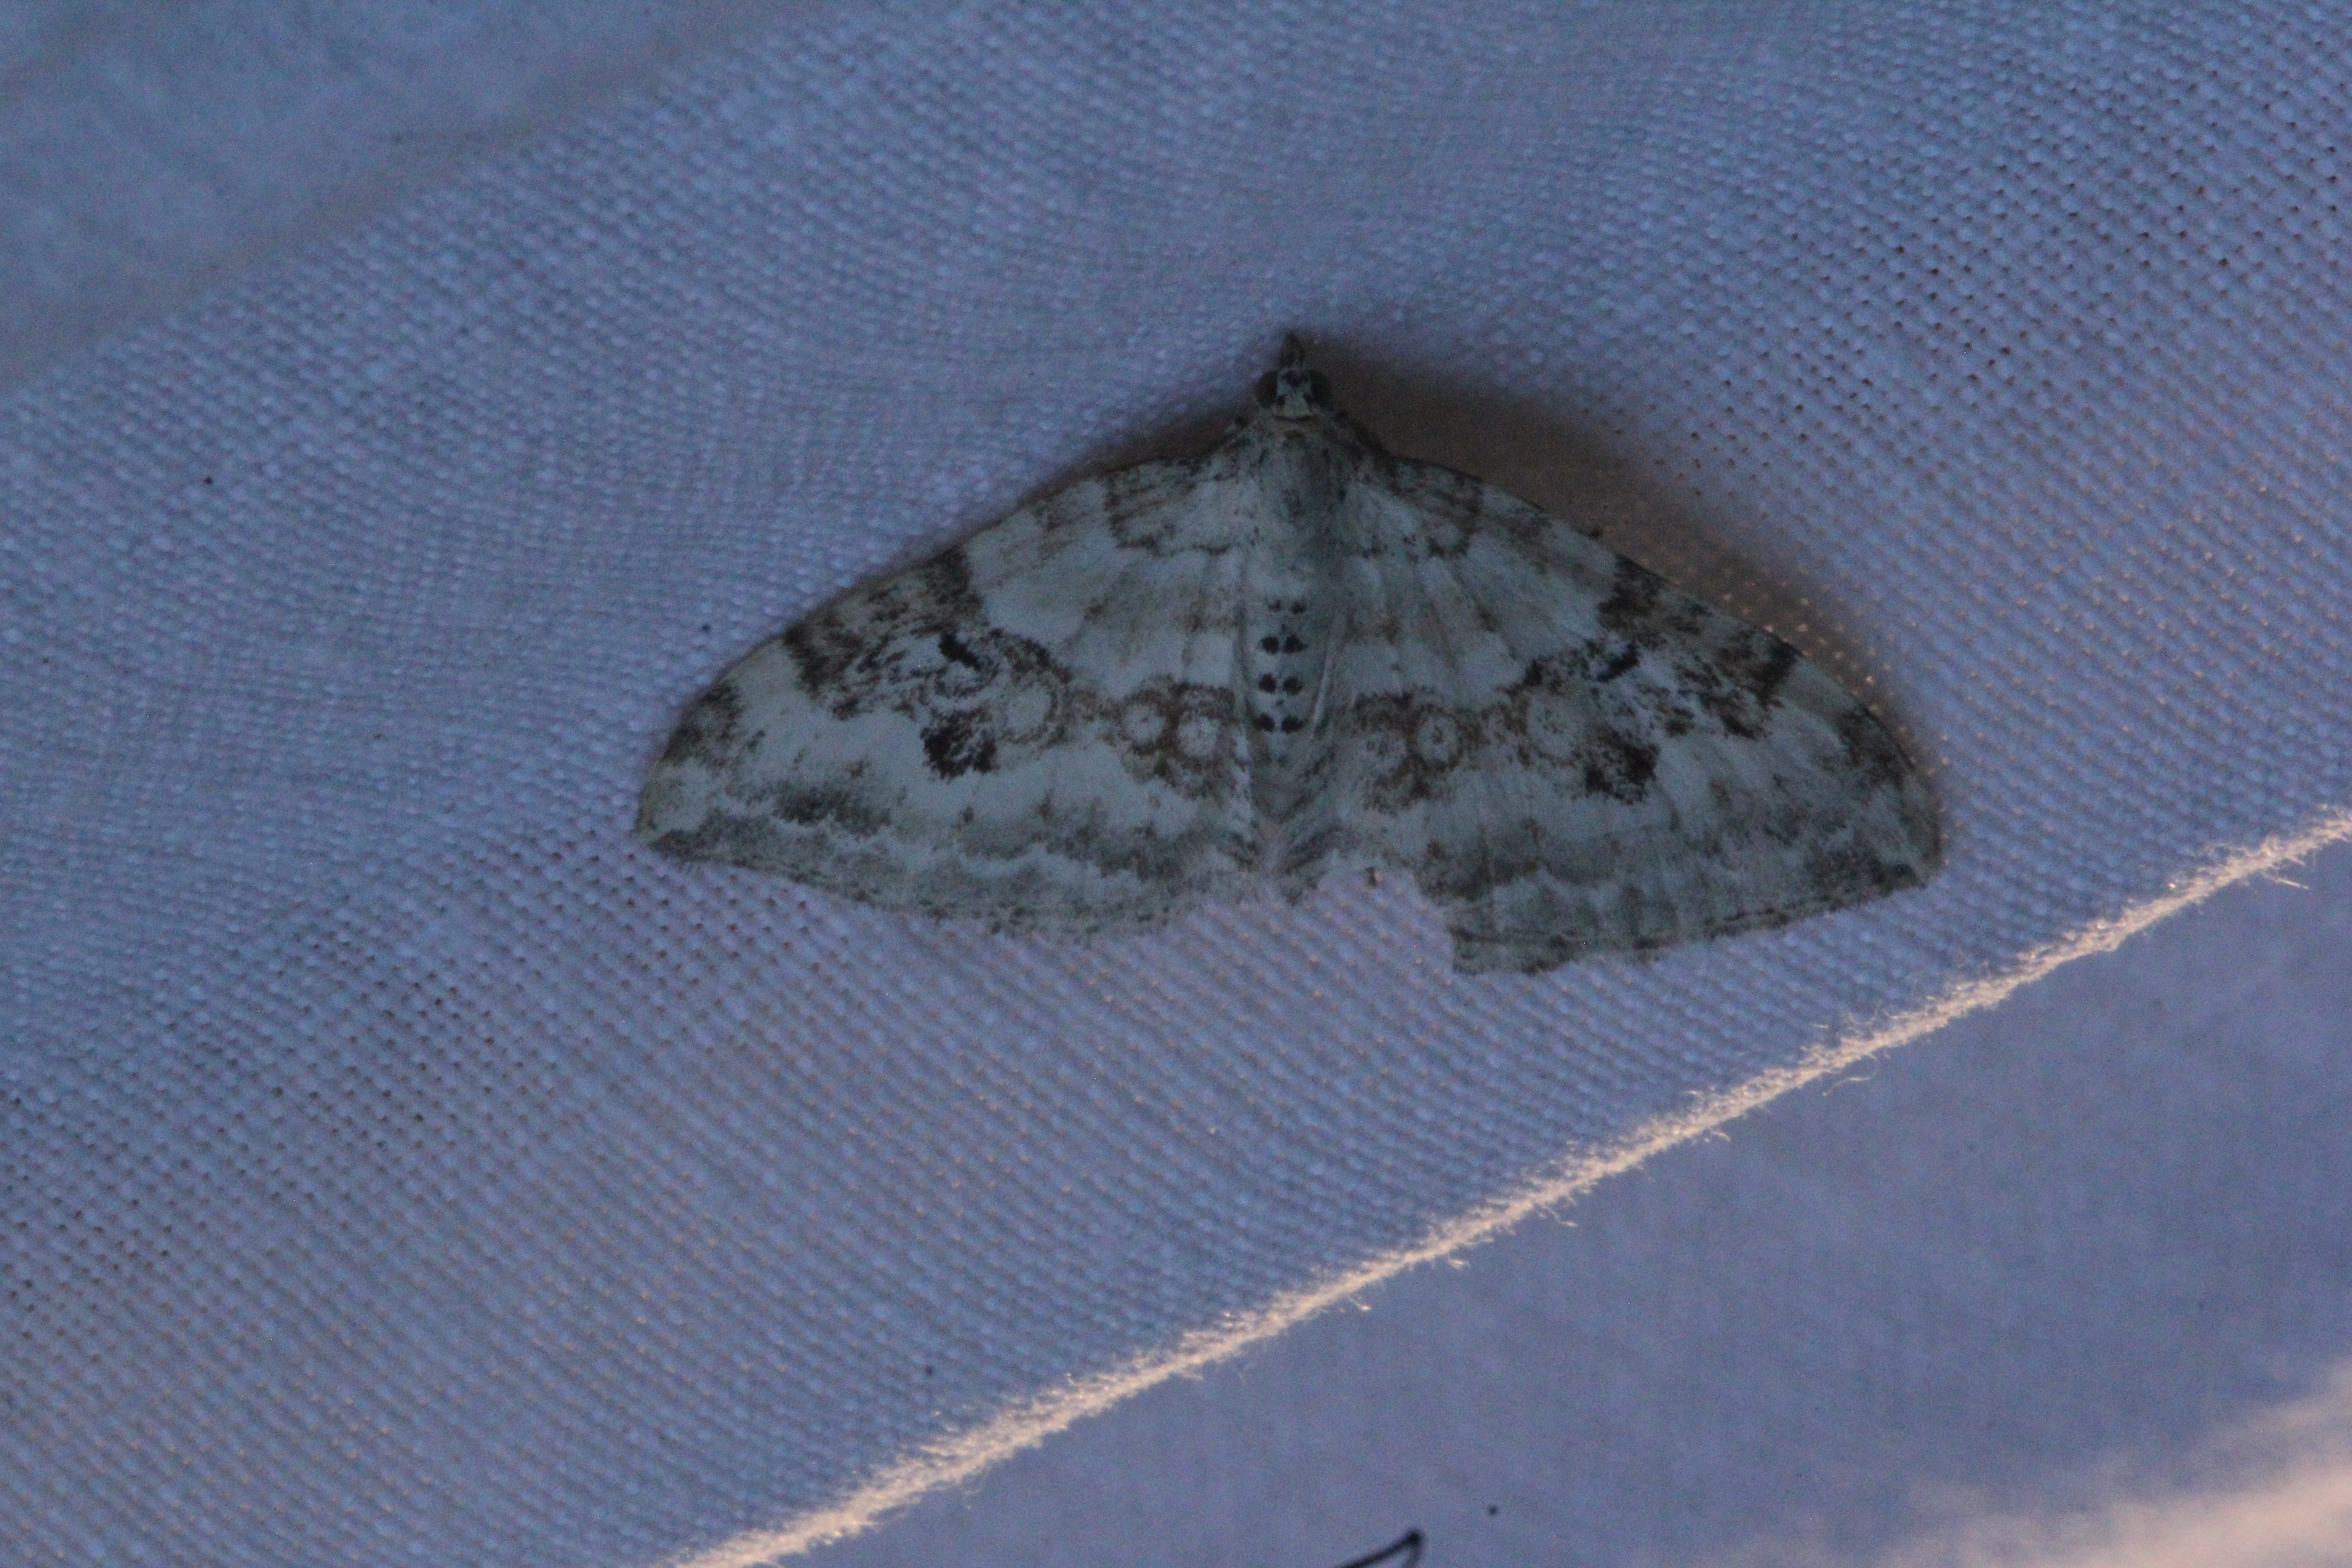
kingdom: Animalia
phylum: Arthropoda
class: Insecta
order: Lepidoptera
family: Geometridae
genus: Xanthorhoe
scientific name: Xanthorhoe montanata
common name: Silver-ground carpet
